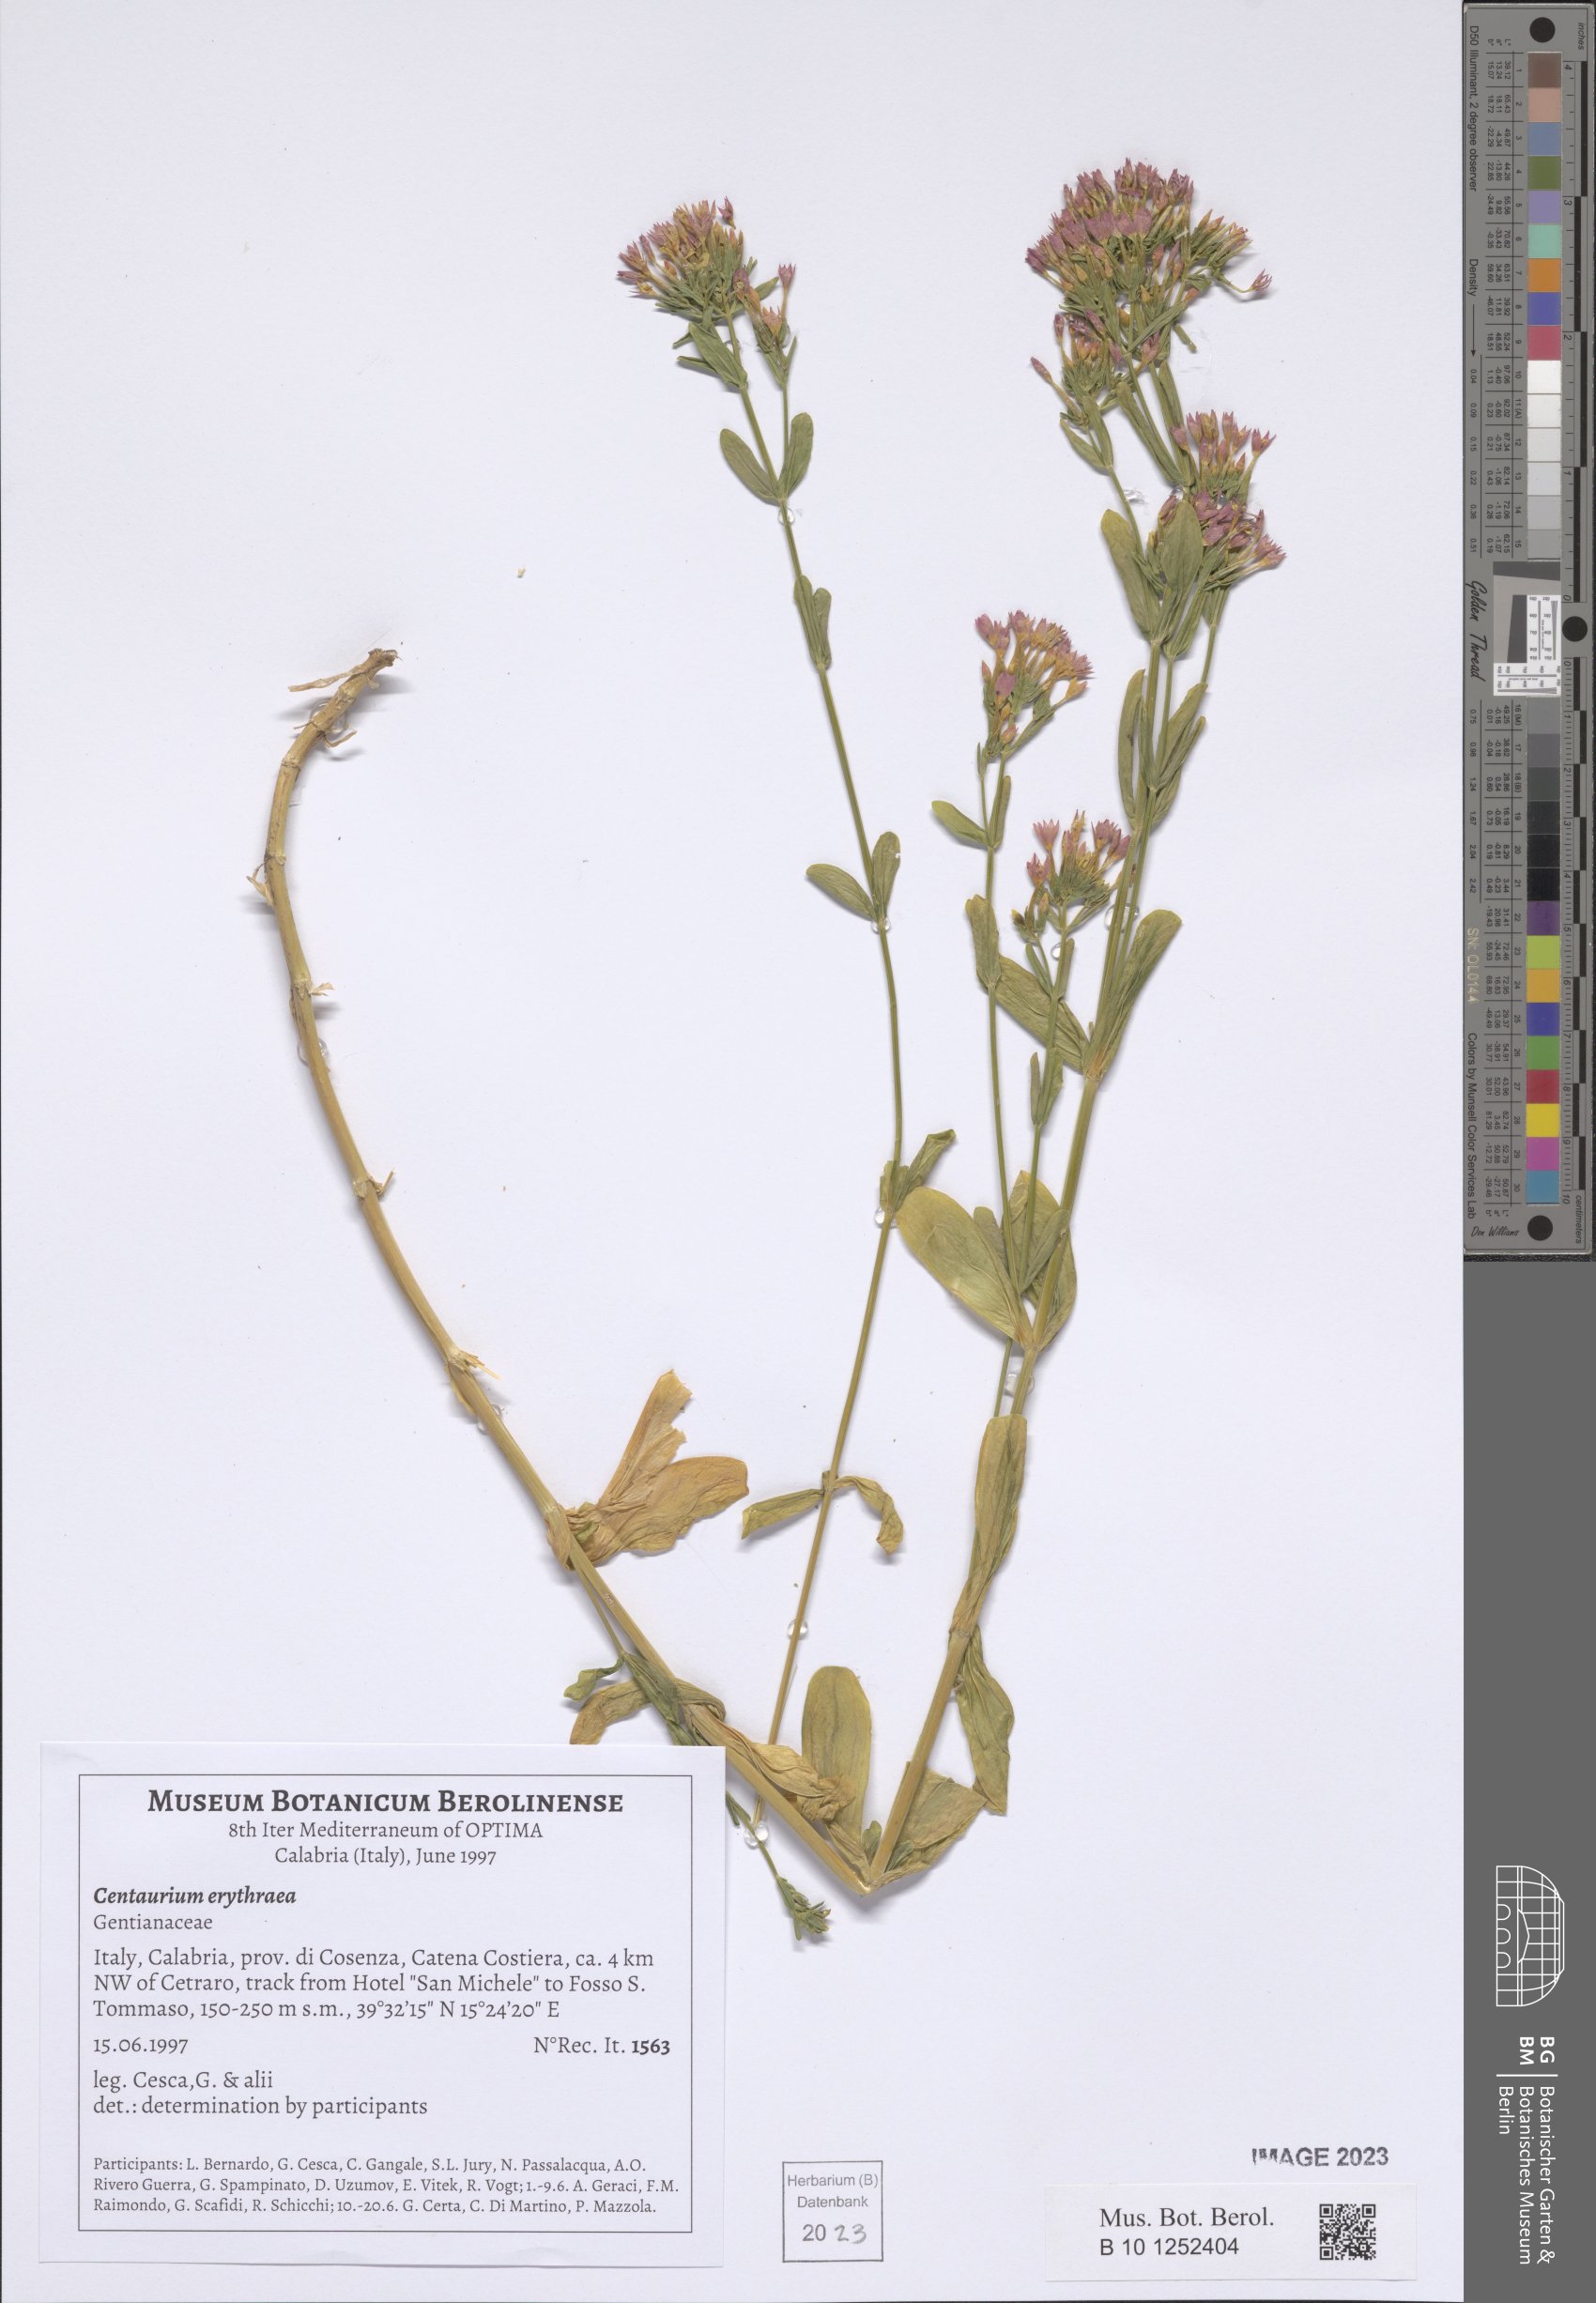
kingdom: Plantae
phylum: Tracheophyta
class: Magnoliopsida
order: Gentianales
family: Gentianaceae
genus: Centaurium
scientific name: Centaurium erythraea
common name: Common centaury
